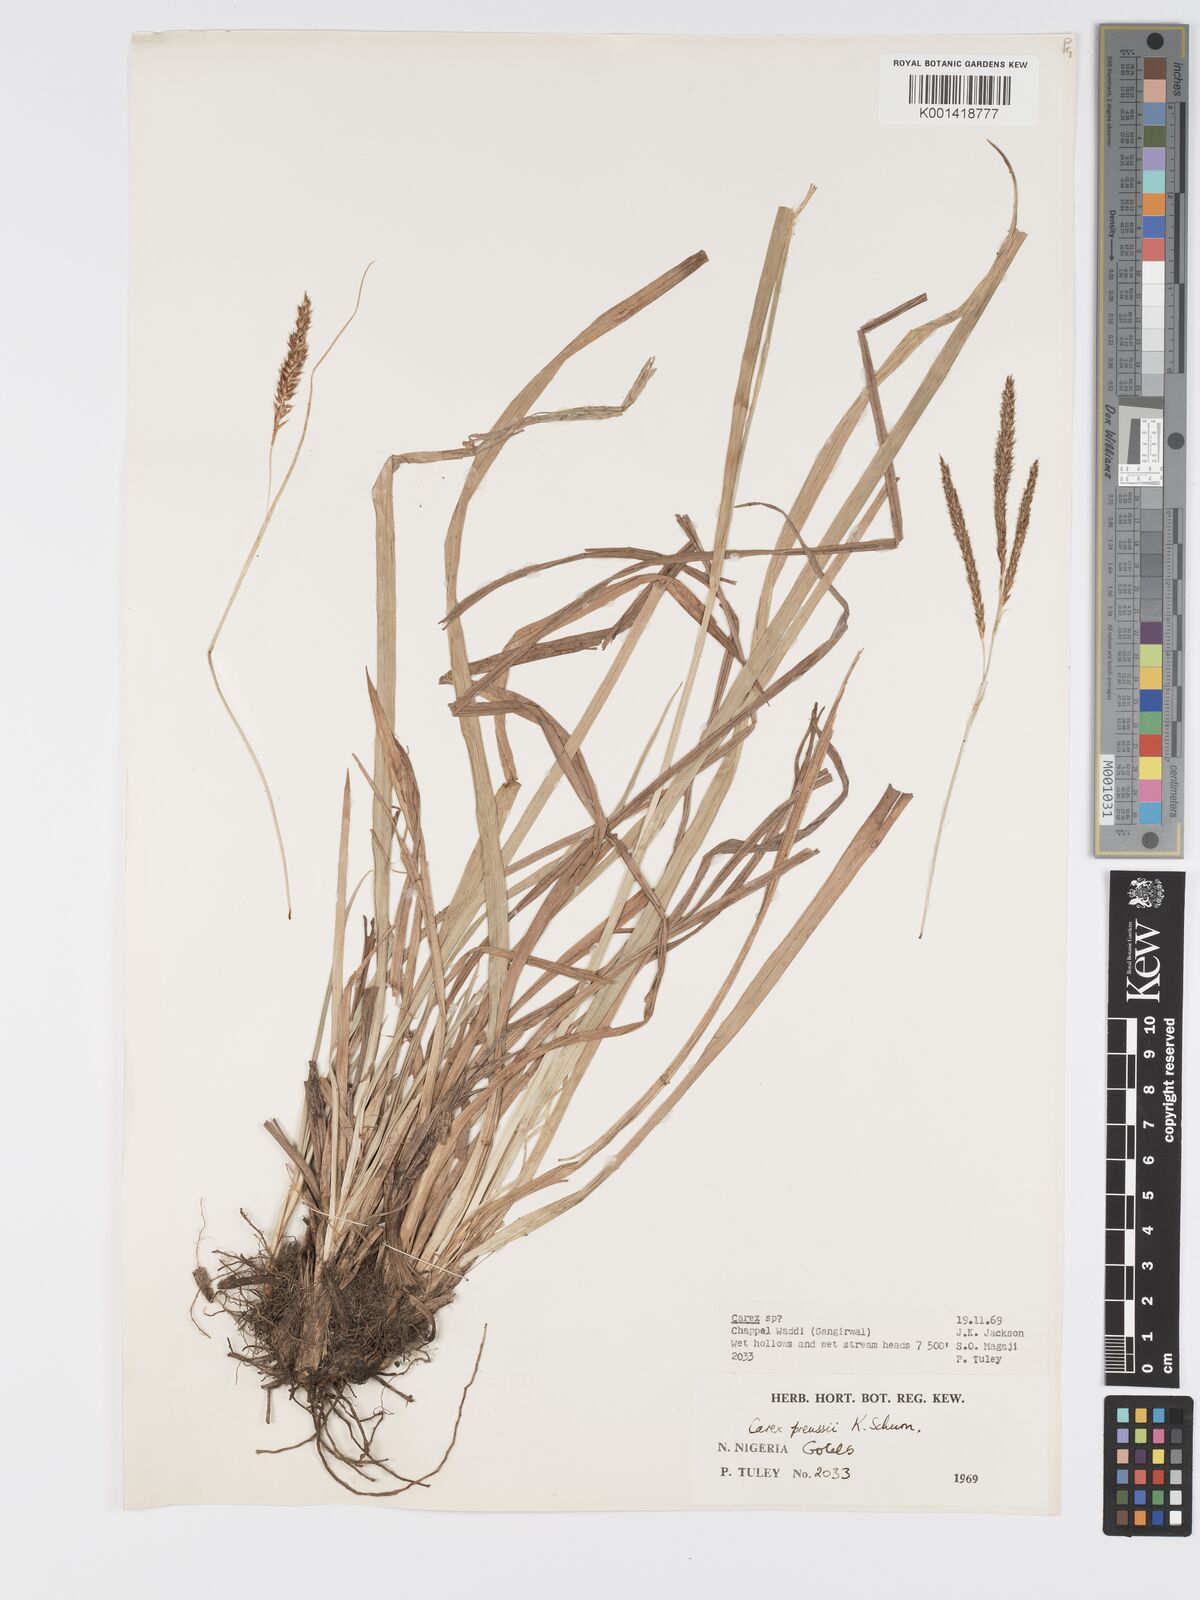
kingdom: Plantae
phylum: Tracheophyta
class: Liliopsida
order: Poales
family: Cyperaceae
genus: Carex
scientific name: Carex
